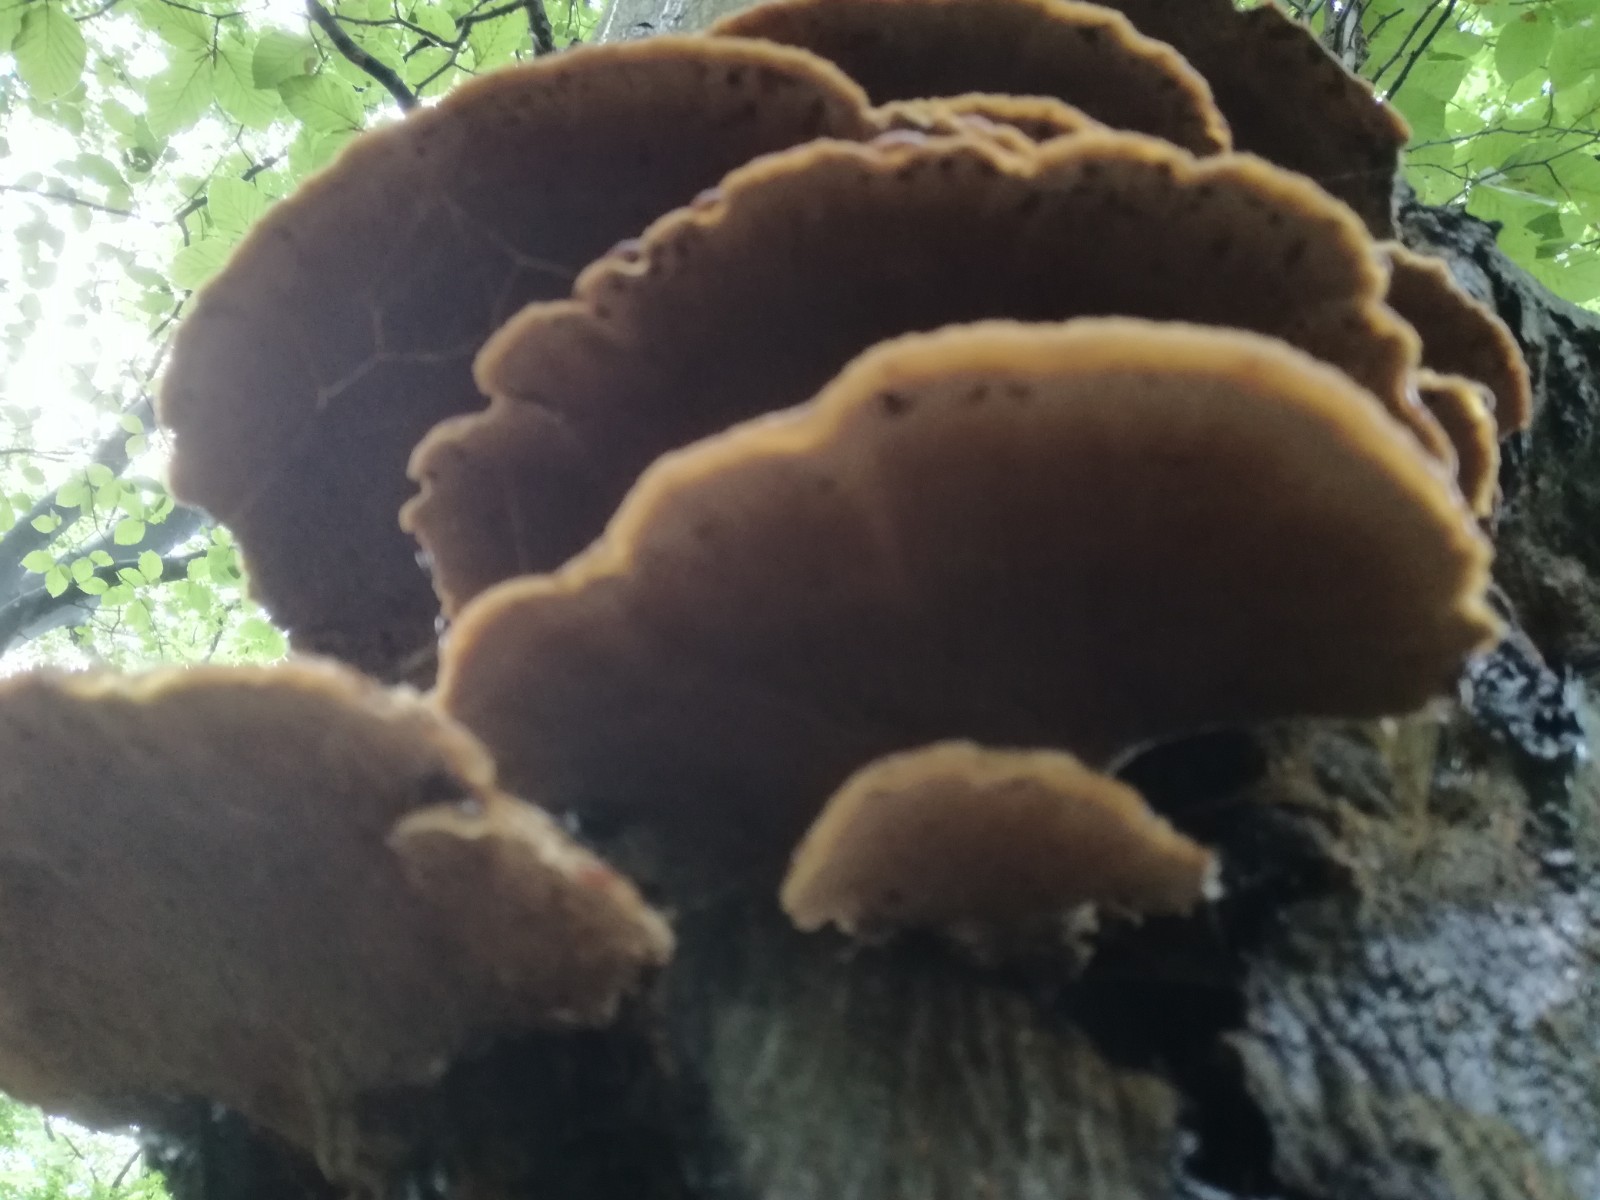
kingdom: Fungi
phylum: Basidiomycota
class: Agaricomycetes
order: Hymenochaetales
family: Hymenochaetaceae
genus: Inonotus
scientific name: Inonotus cuticularis
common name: kroghåret spejlporesvamp
